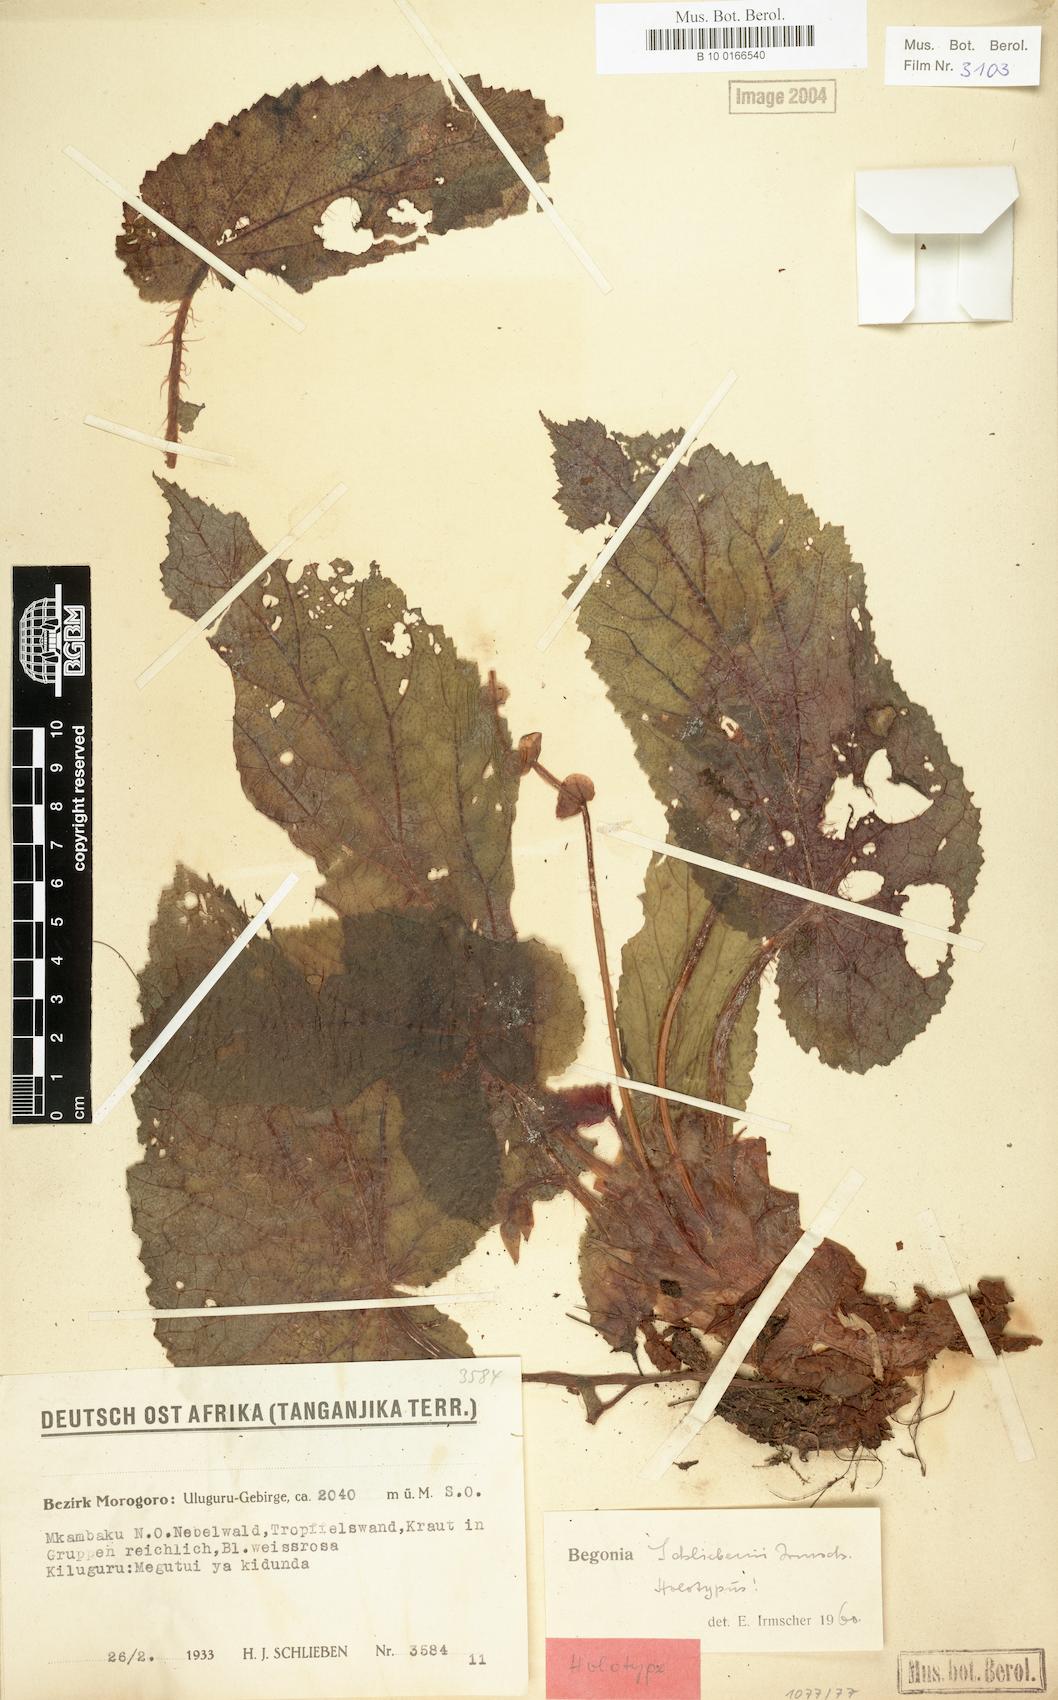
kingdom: Plantae
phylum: Tracheophyta
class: Magnoliopsida
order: Cucurbitales
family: Begoniaceae
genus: Begonia
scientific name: Begonia schliebenii
